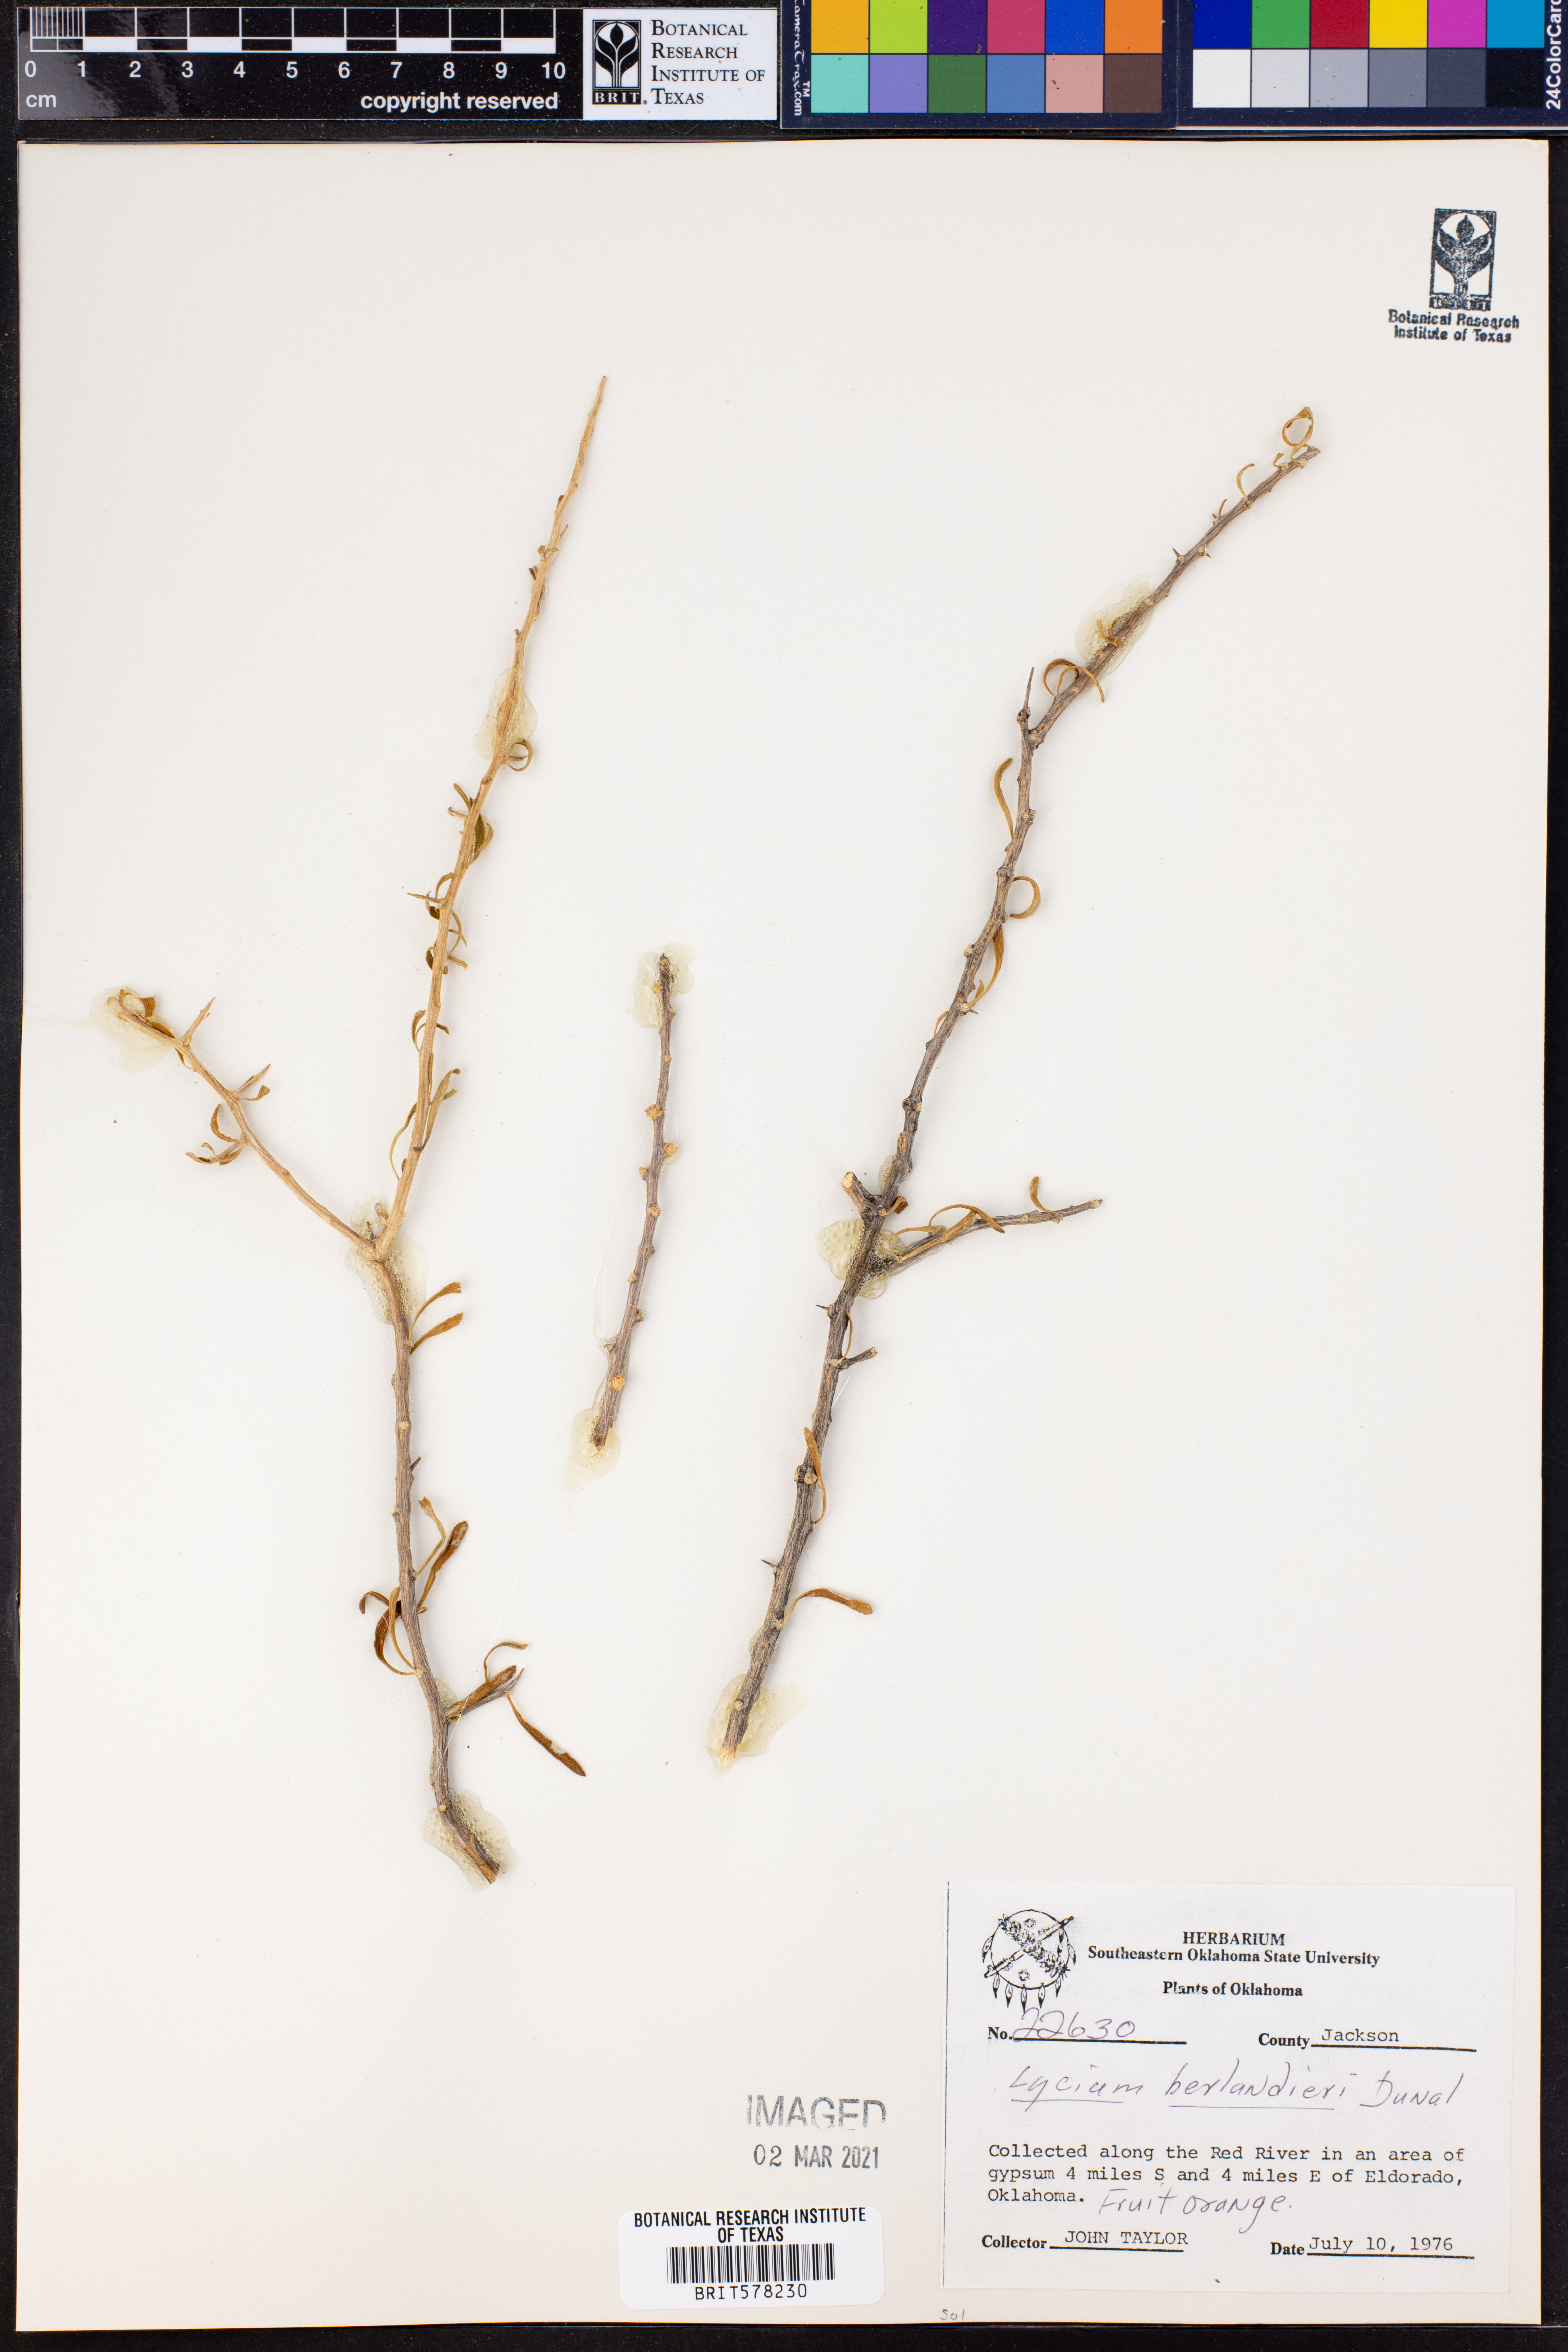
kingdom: Plantae
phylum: Tracheophyta
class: Magnoliopsida
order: Solanales
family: Solanaceae
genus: Lycium
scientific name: Lycium berlandieri
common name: Berlandier wolfberry
